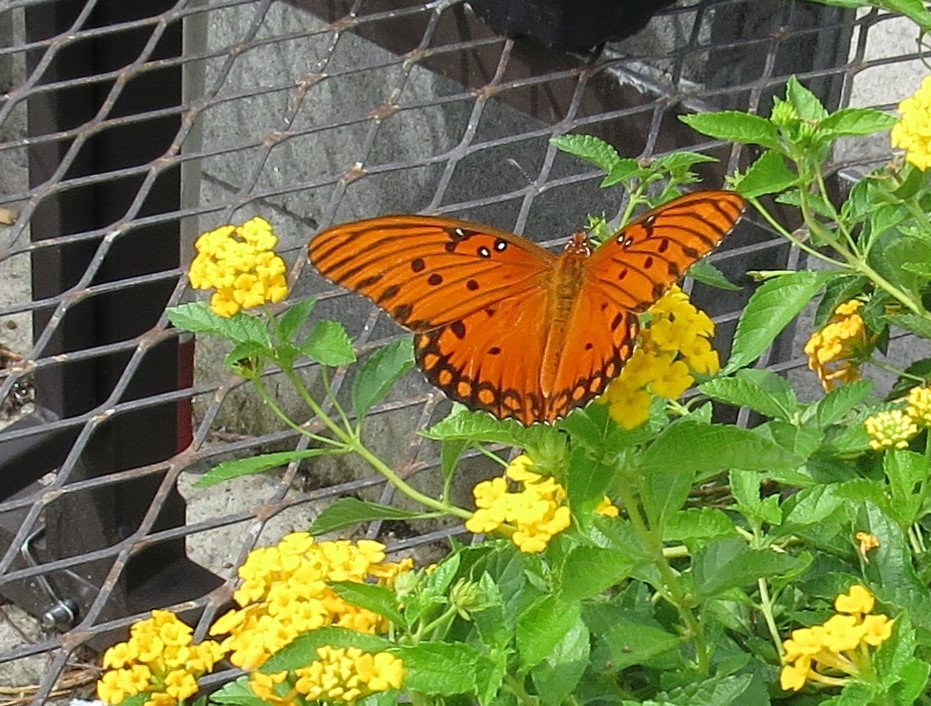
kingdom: Animalia
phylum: Arthropoda
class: Insecta
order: Lepidoptera
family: Nymphalidae
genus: Dione
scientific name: Dione vanillae
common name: Gulf Fritillary
